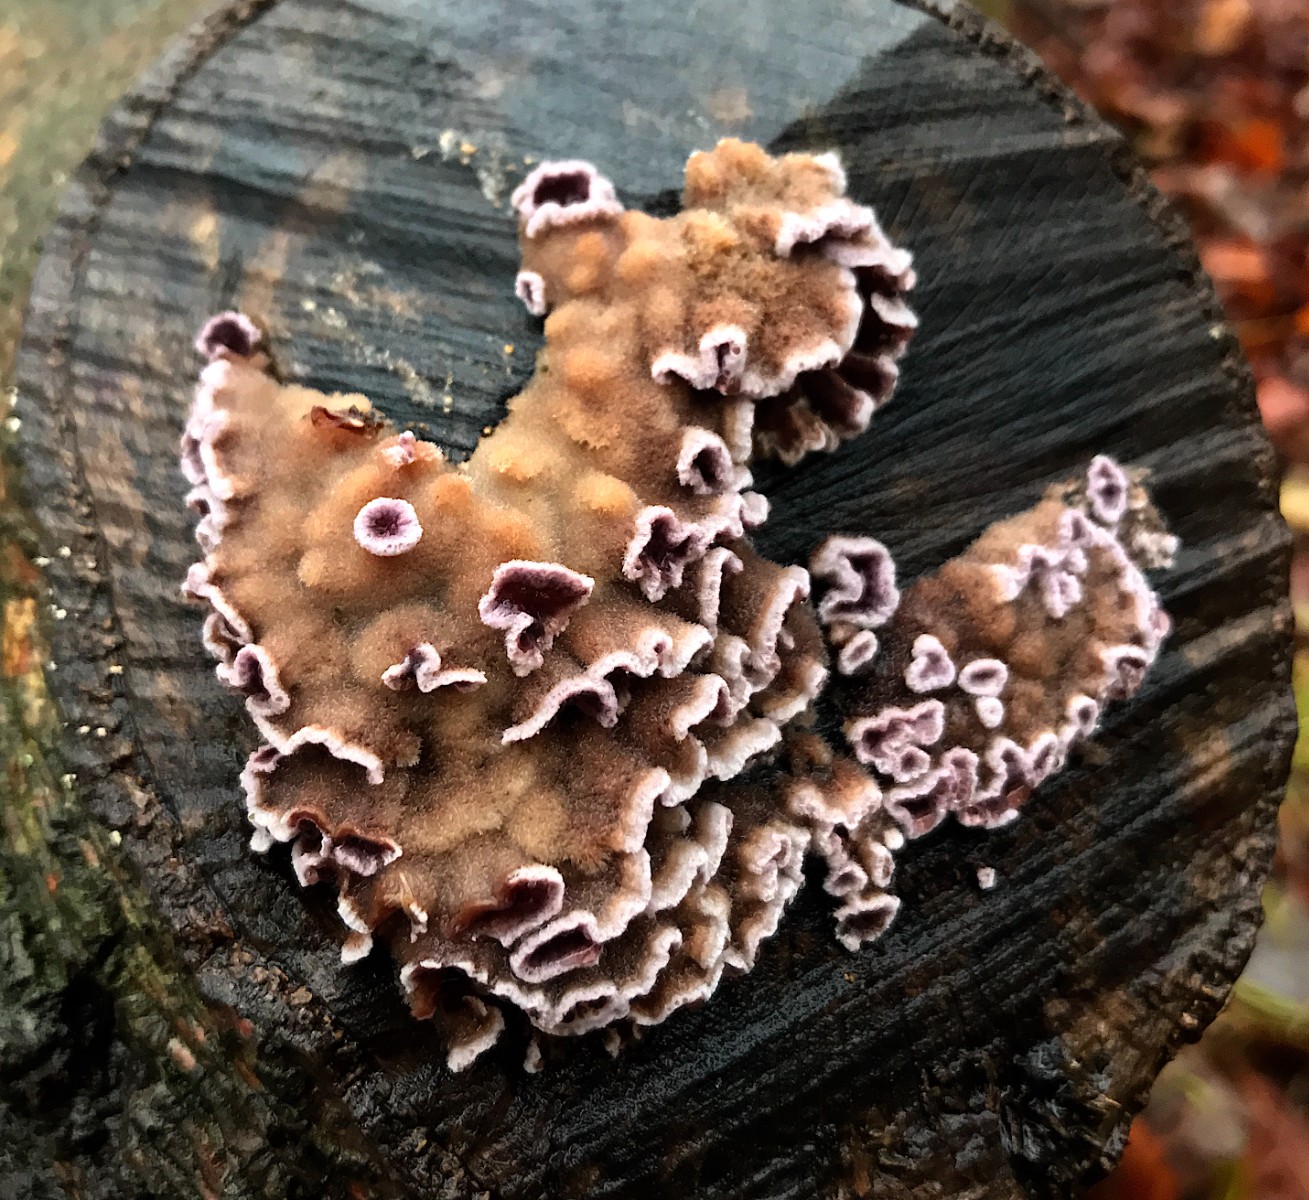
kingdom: Fungi
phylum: Basidiomycota
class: Agaricomycetes
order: Agaricales
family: Cyphellaceae
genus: Chondrostereum
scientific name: Chondrostereum purpureum
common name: purpurlædersvamp
